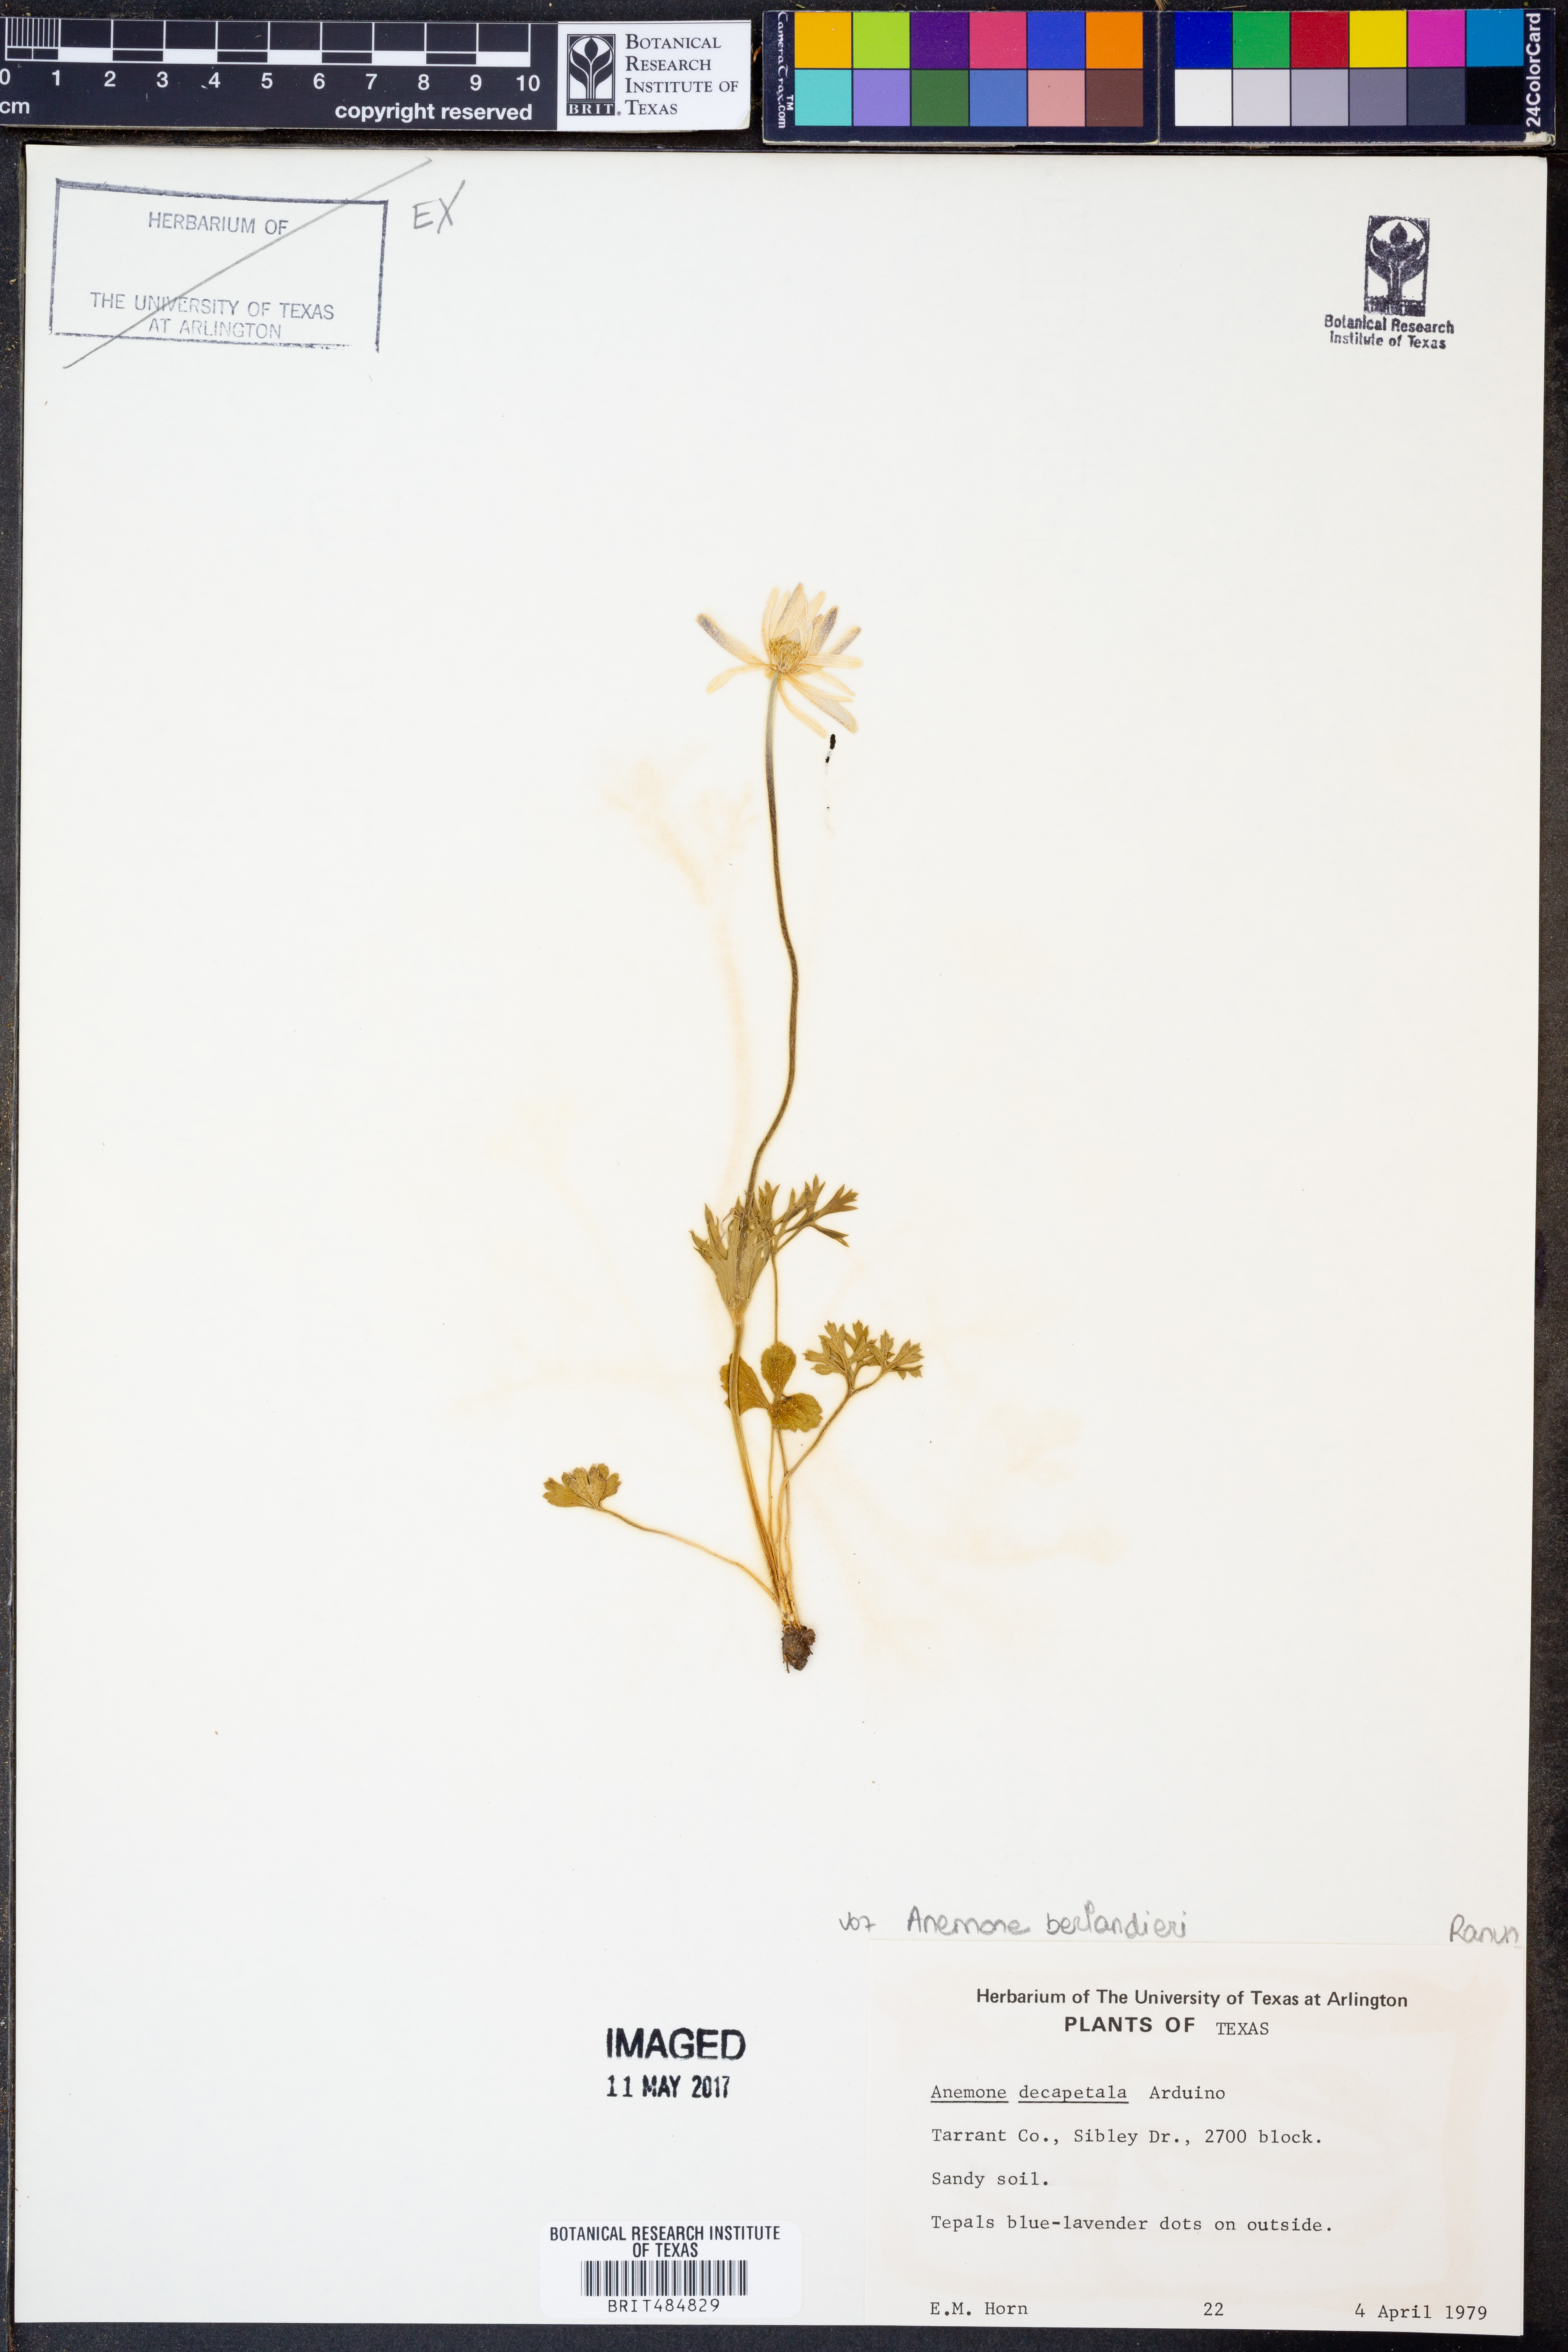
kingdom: Plantae
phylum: Tracheophyta
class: Magnoliopsida
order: Ranunculales
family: Ranunculaceae
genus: Anemone
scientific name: Anemone berlandieri
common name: Ten-petal anemone
